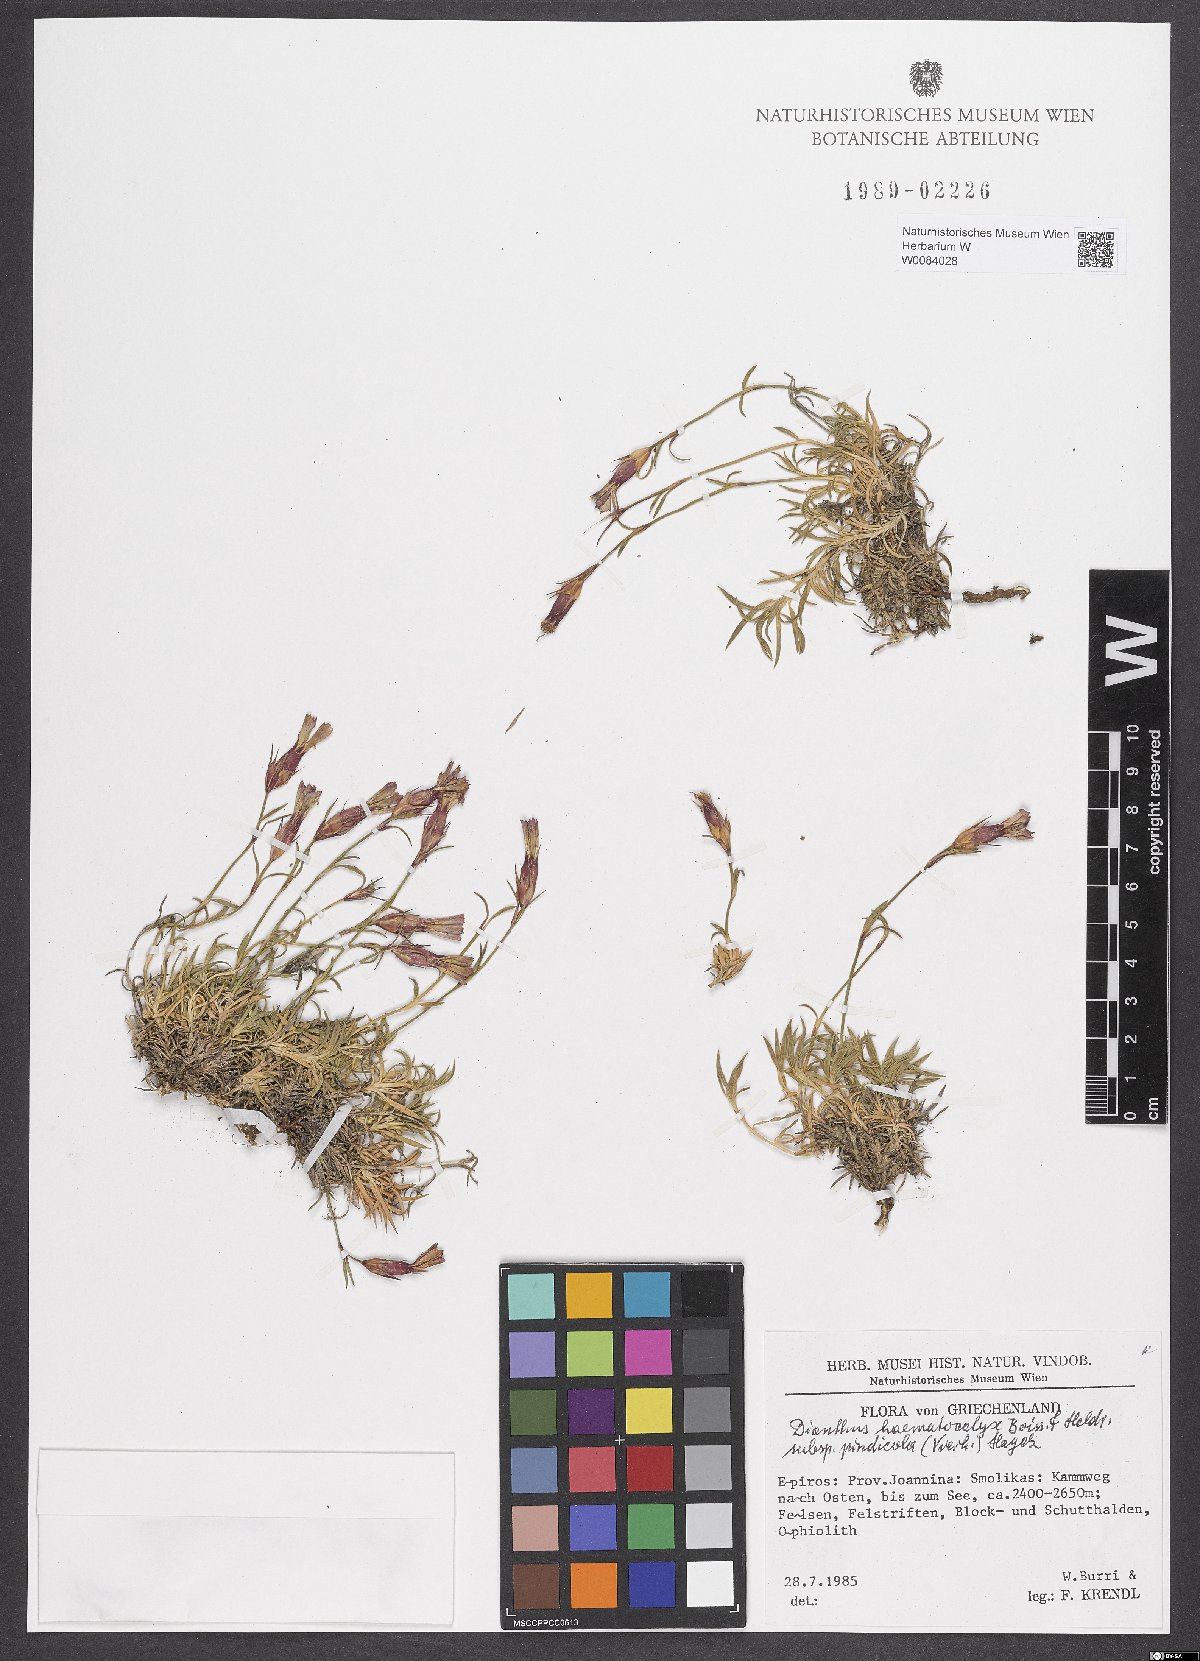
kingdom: Plantae
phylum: Tracheophyta
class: Magnoliopsida
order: Caryophyllales
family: Caryophyllaceae
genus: Dianthus
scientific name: Dianthus haematocalyx
